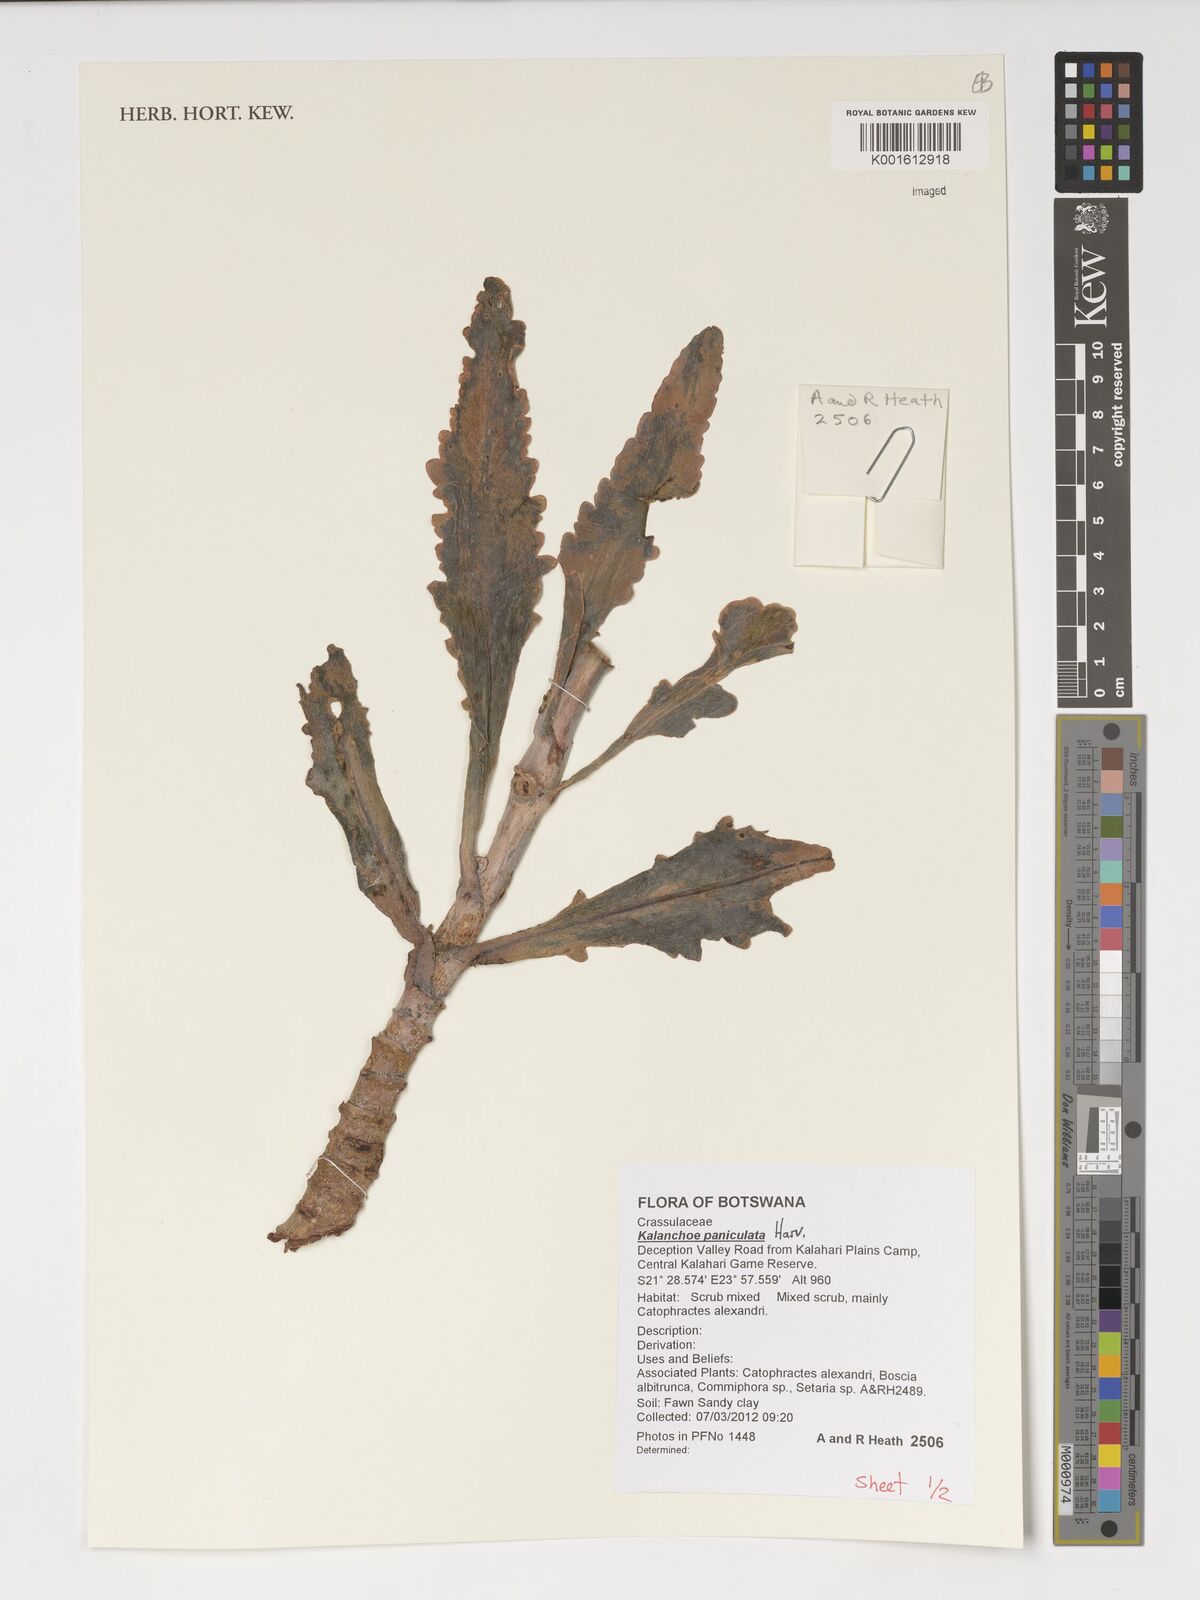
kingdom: Plantae
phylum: Tracheophyta
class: Magnoliopsida
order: Saxifragales
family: Crassulaceae
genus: Kalanchoe
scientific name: Kalanchoe paniculata
